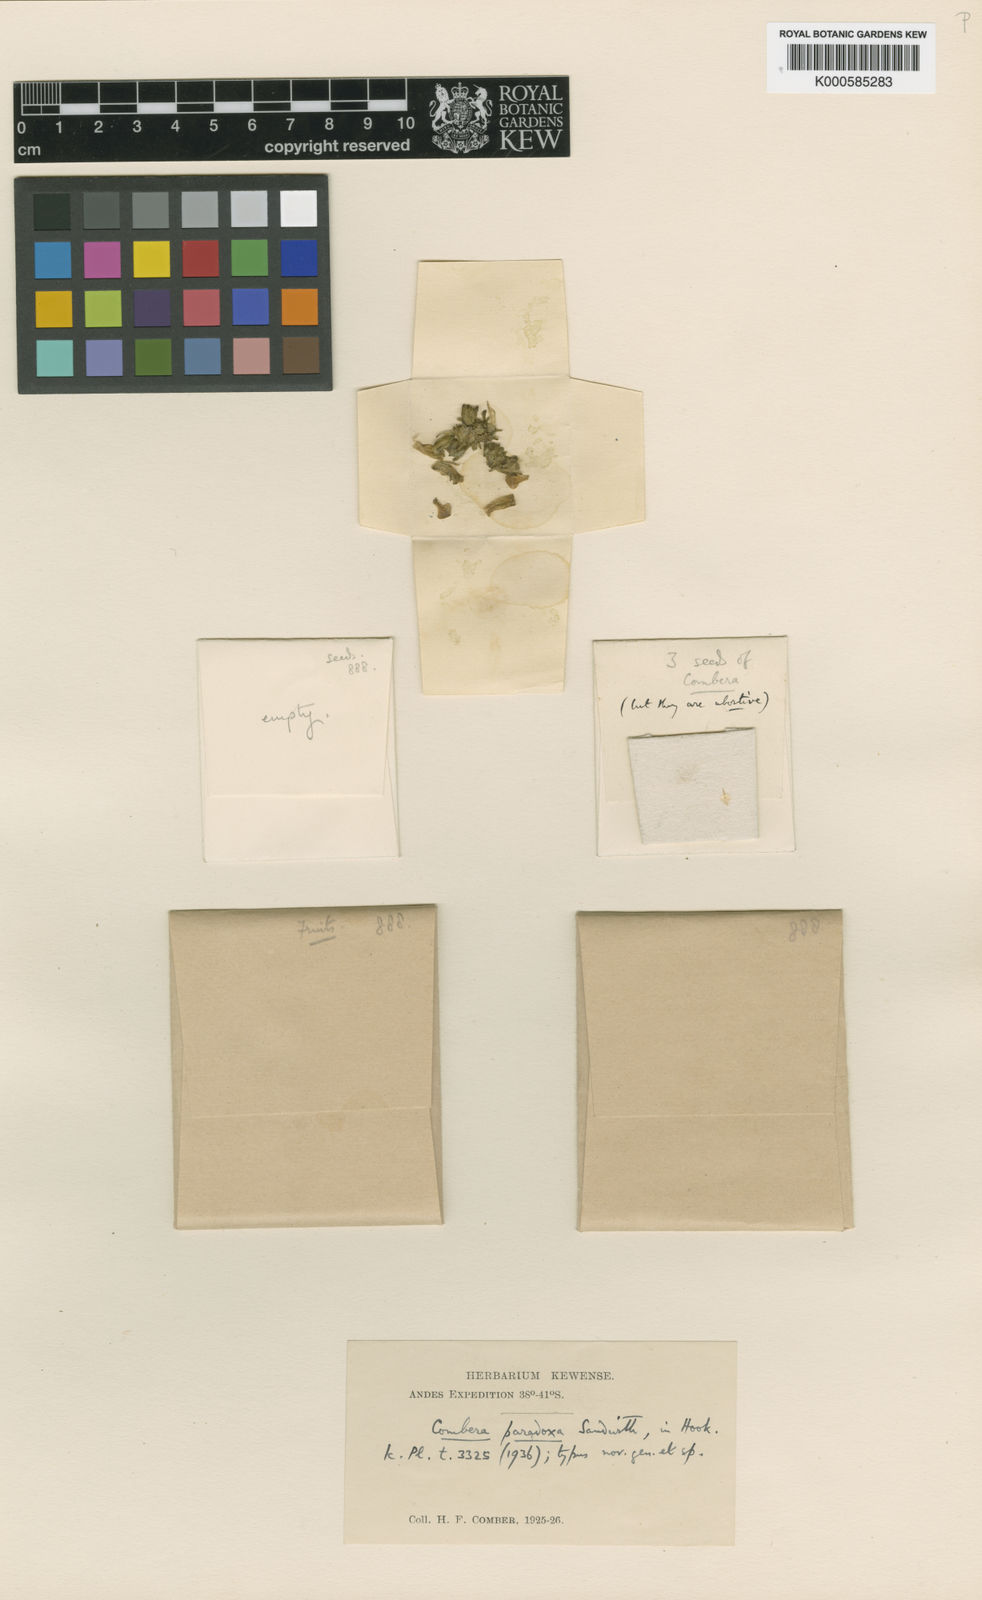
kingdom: Plantae
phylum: Tracheophyta
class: Magnoliopsida
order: Solanales
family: Solanaceae
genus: Combera
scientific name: Combera paradoxa
